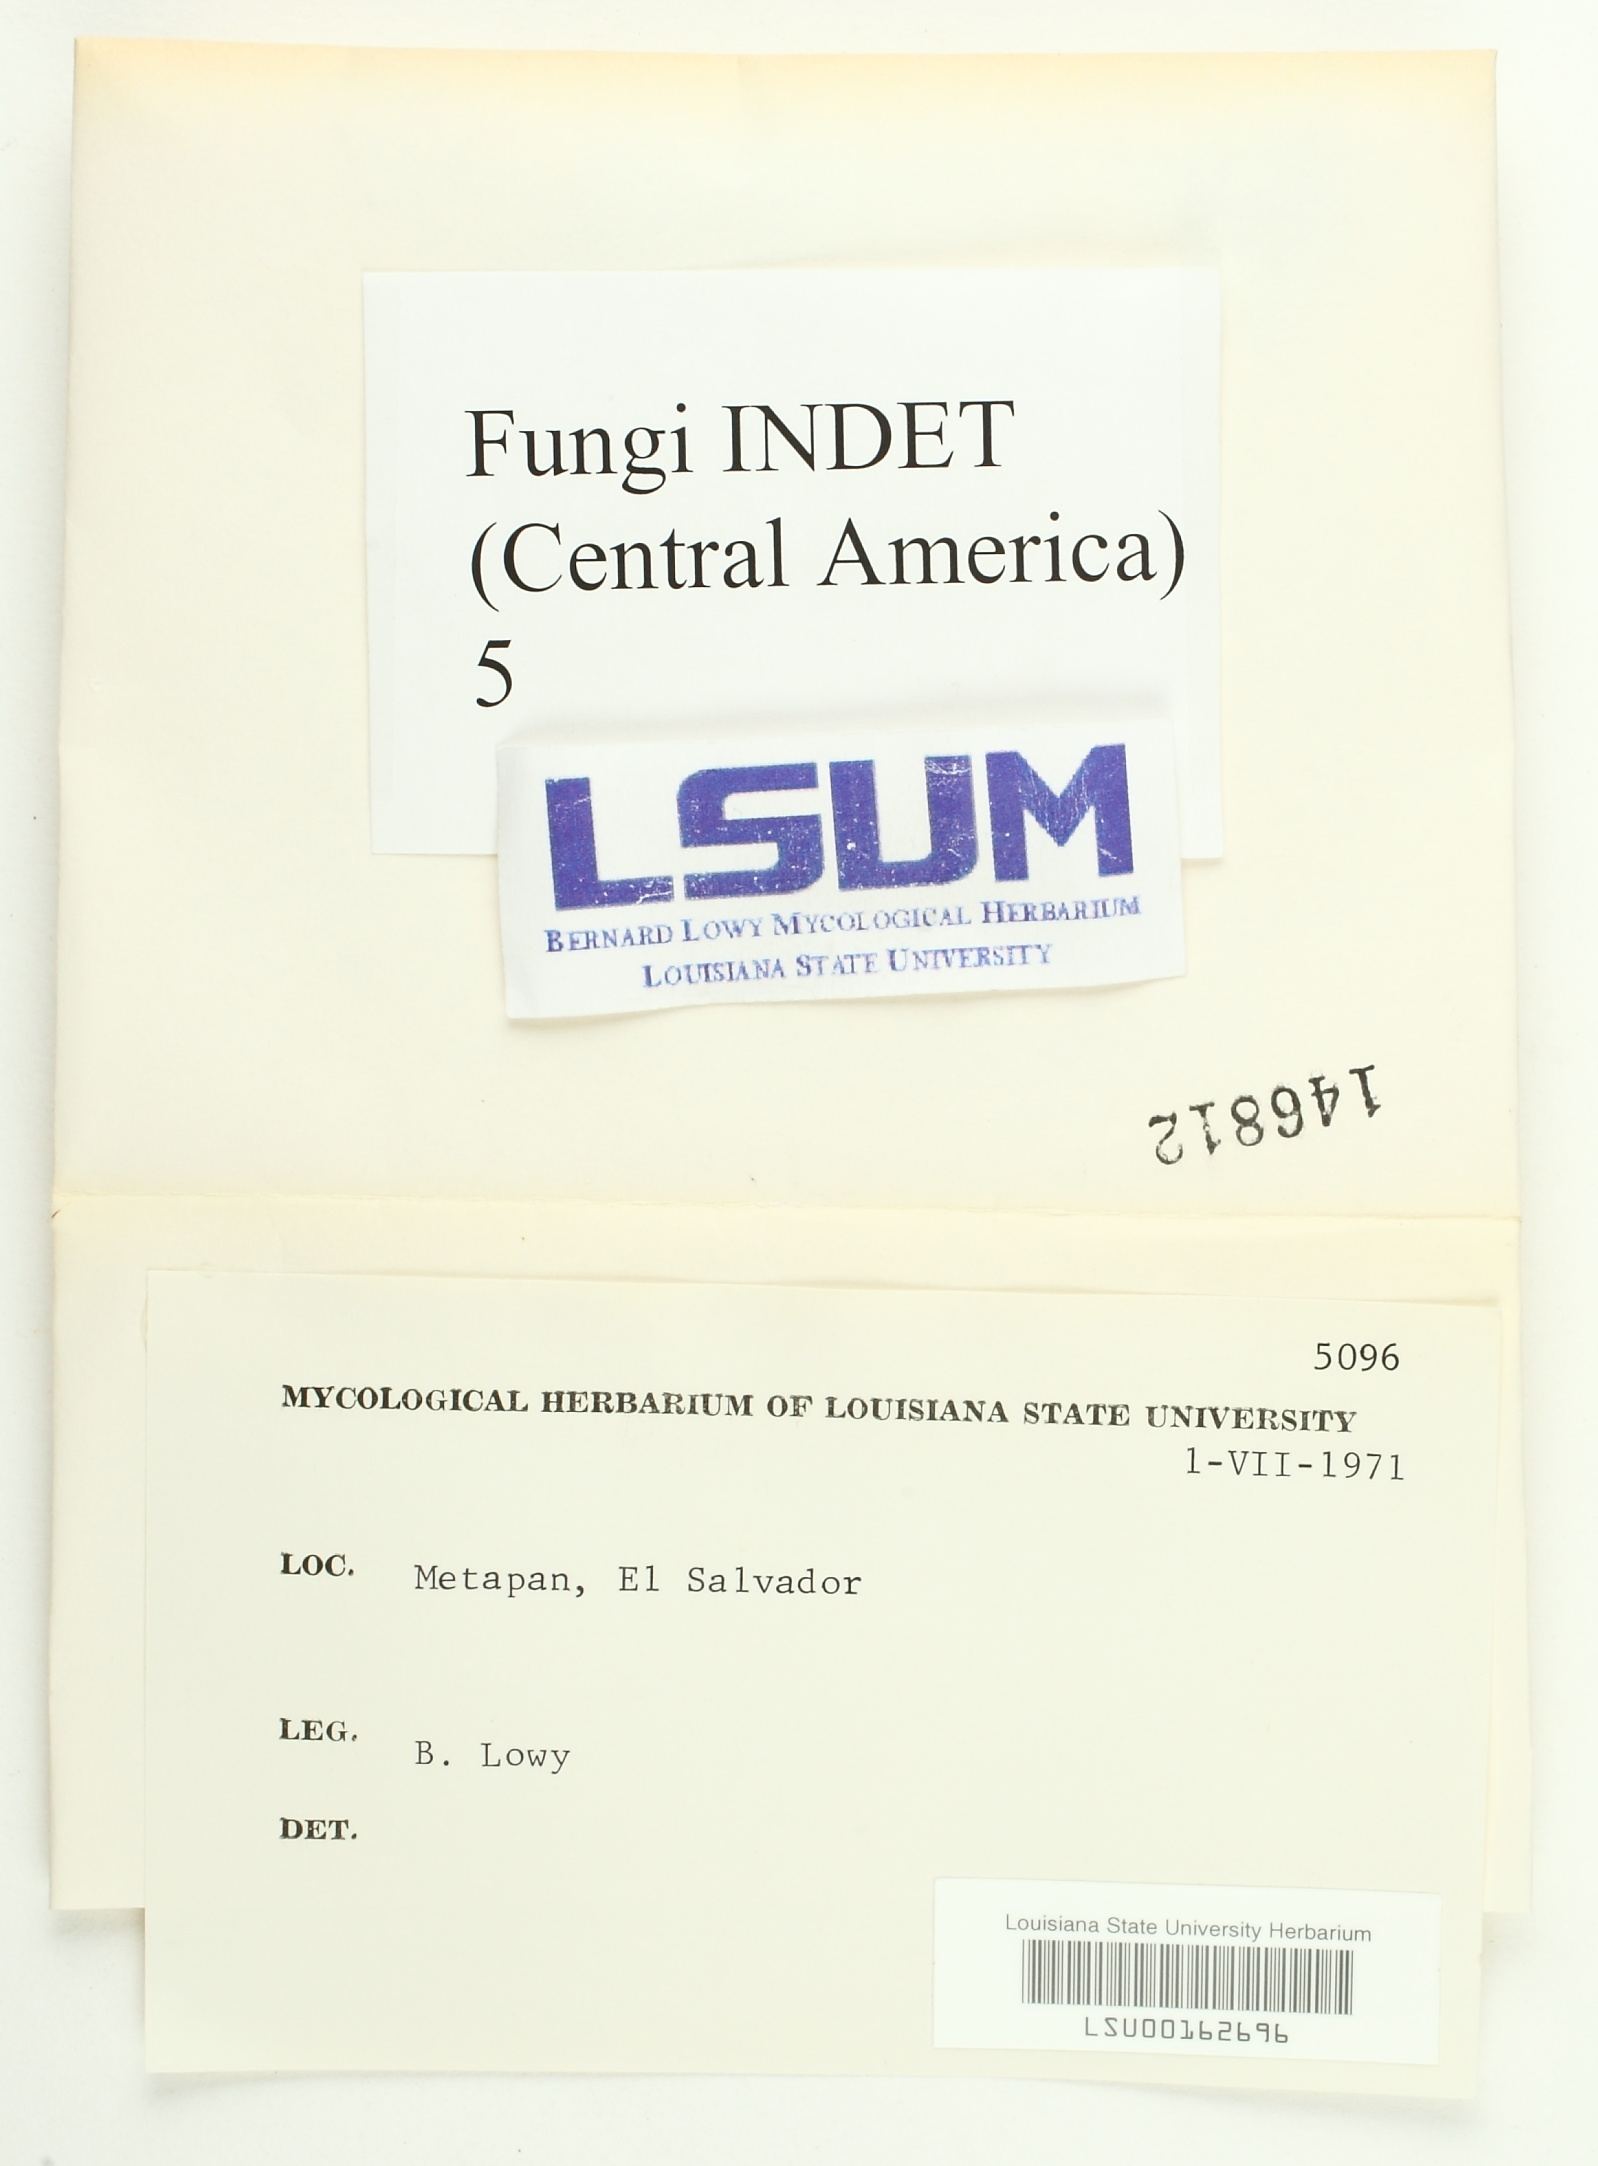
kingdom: Fungi
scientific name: Fungi
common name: Fungi
